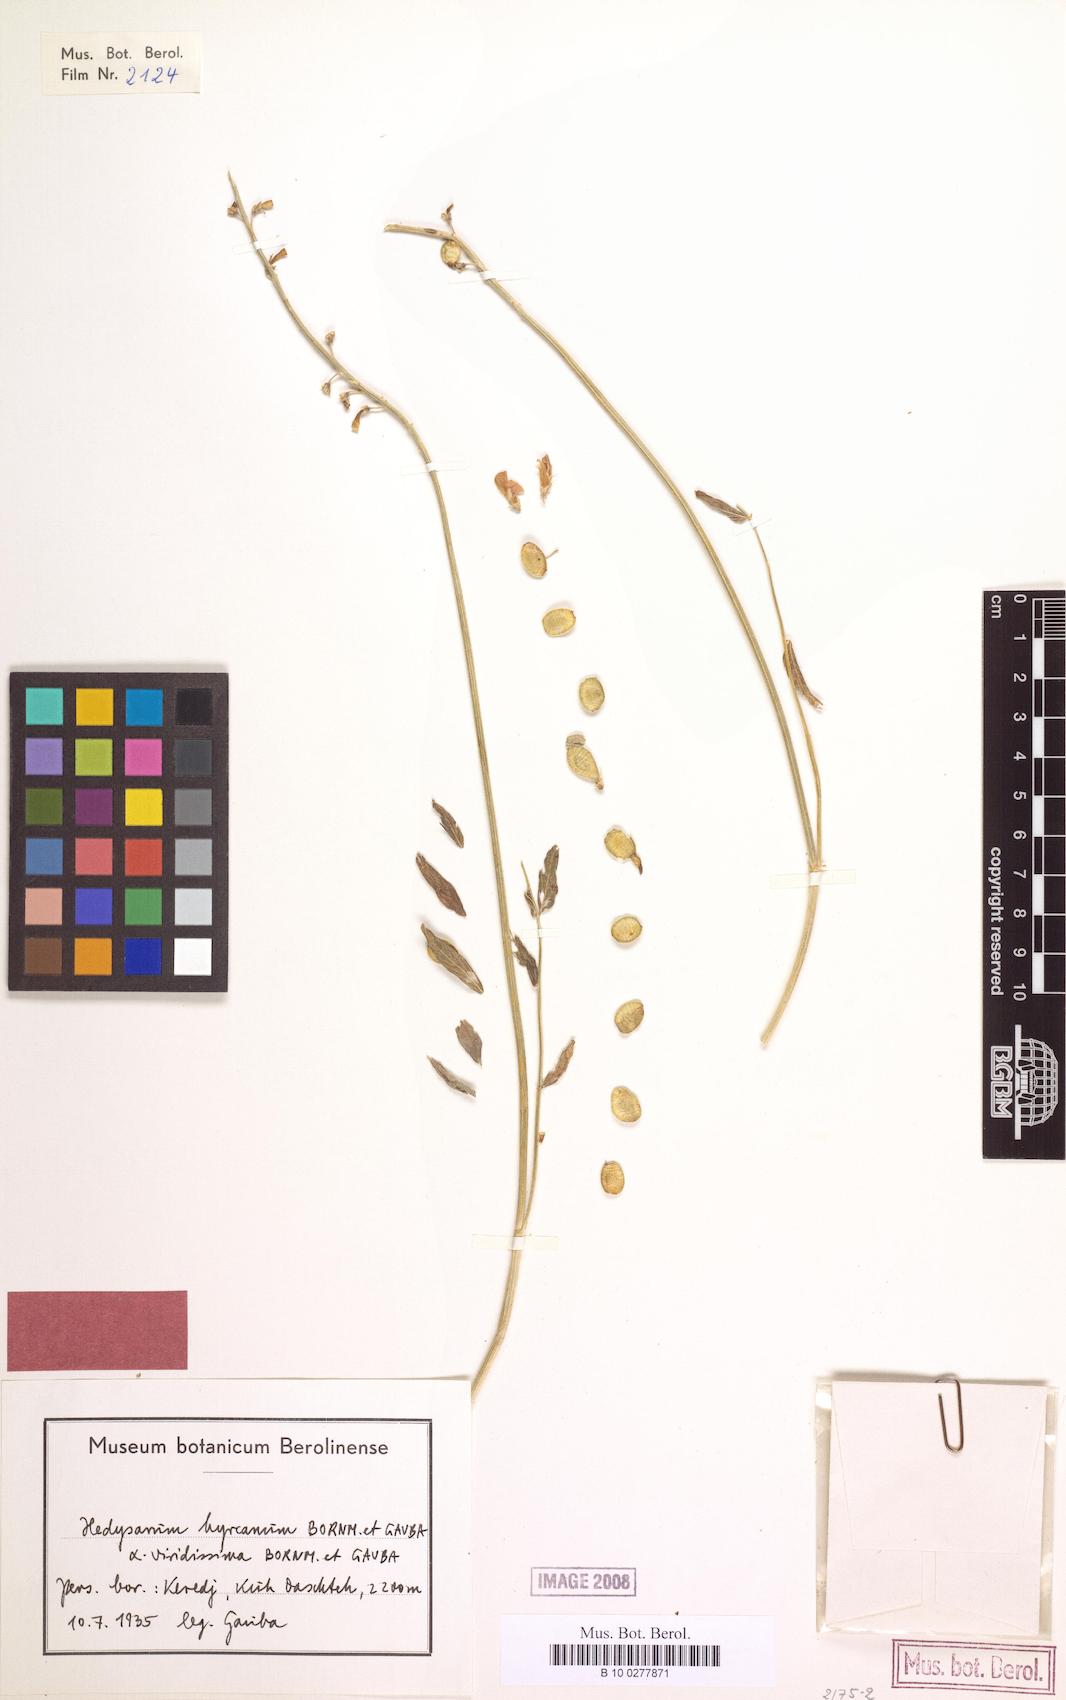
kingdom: Plantae
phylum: Tracheophyta
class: Magnoliopsida
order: Fabales
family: Fabaceae
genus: Hedysarum
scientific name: Hedysarum hyrcanum
